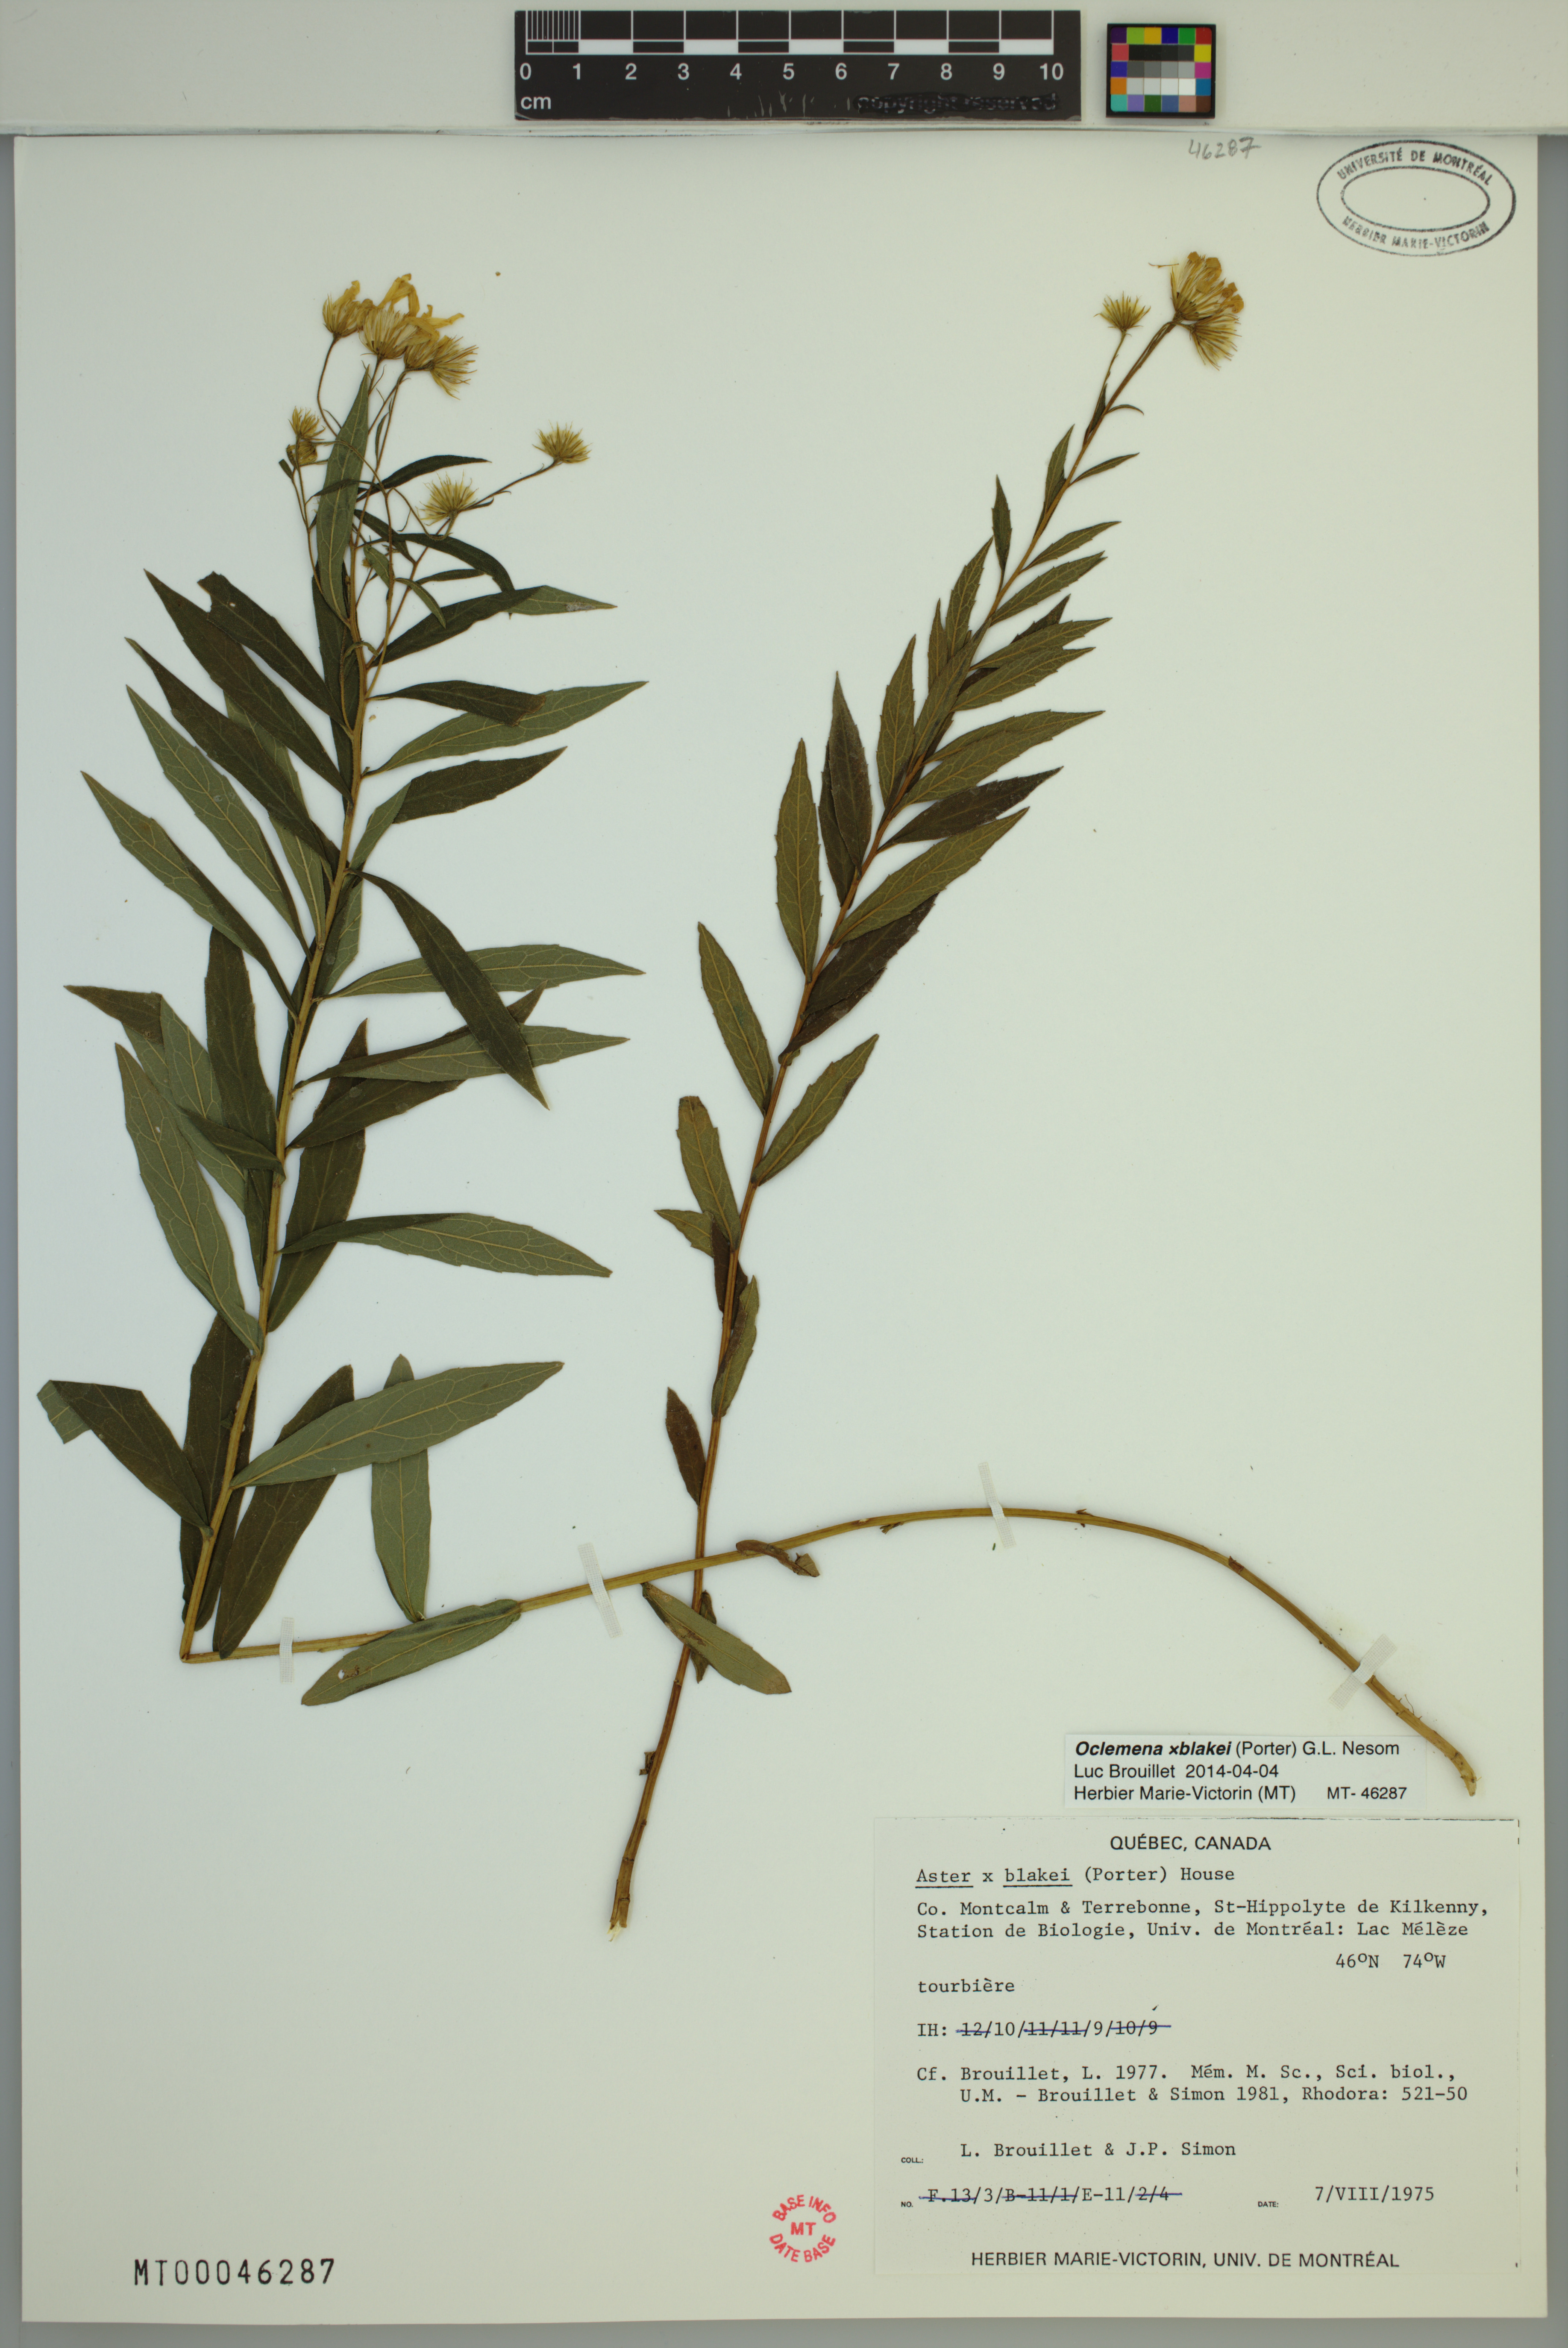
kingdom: Plantae
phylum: Tracheophyta
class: Magnoliopsida
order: Asterales
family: Asteraceae
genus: Oclemena
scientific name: Oclemena blakei
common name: Blake's aster
